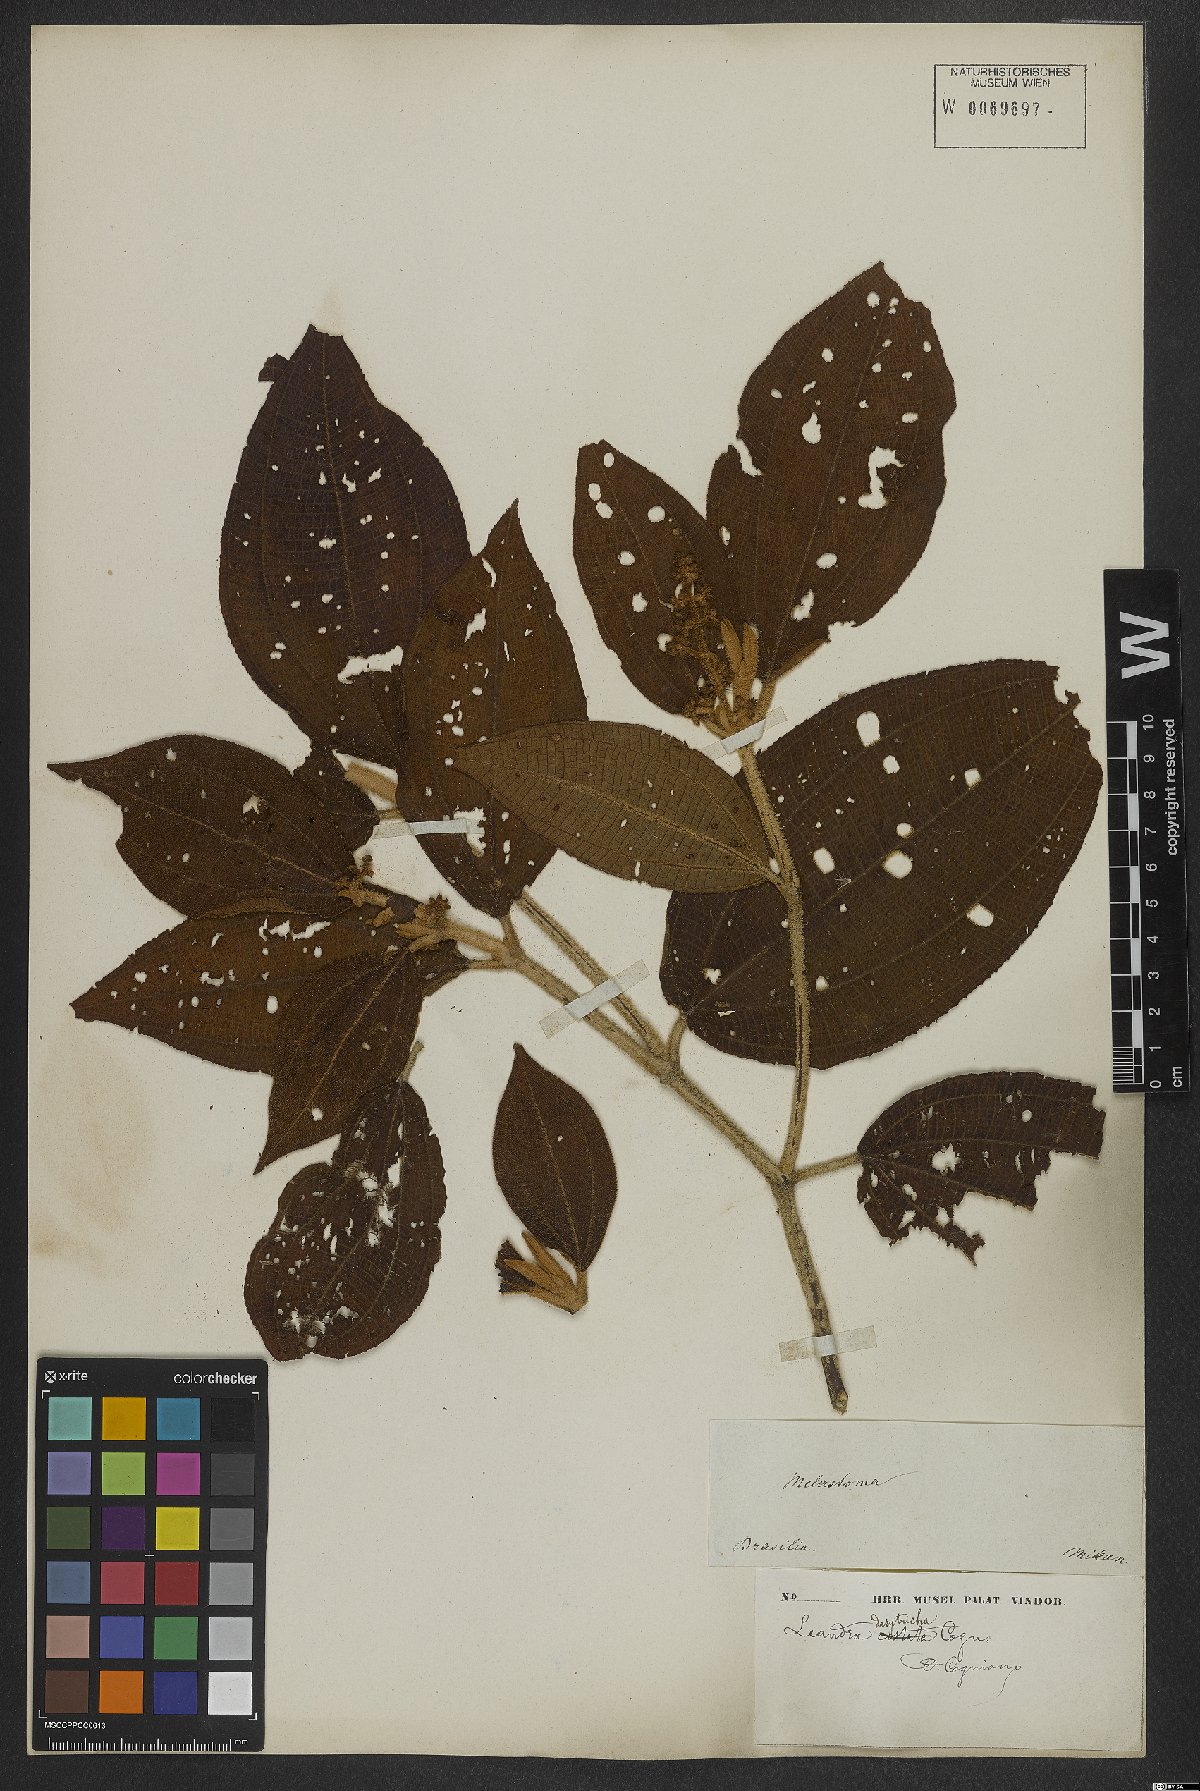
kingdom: Plantae
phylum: Tracheophyta
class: Magnoliopsida
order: Myrtales
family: Melastomataceae
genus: Miconia
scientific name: Miconia dasytricha
